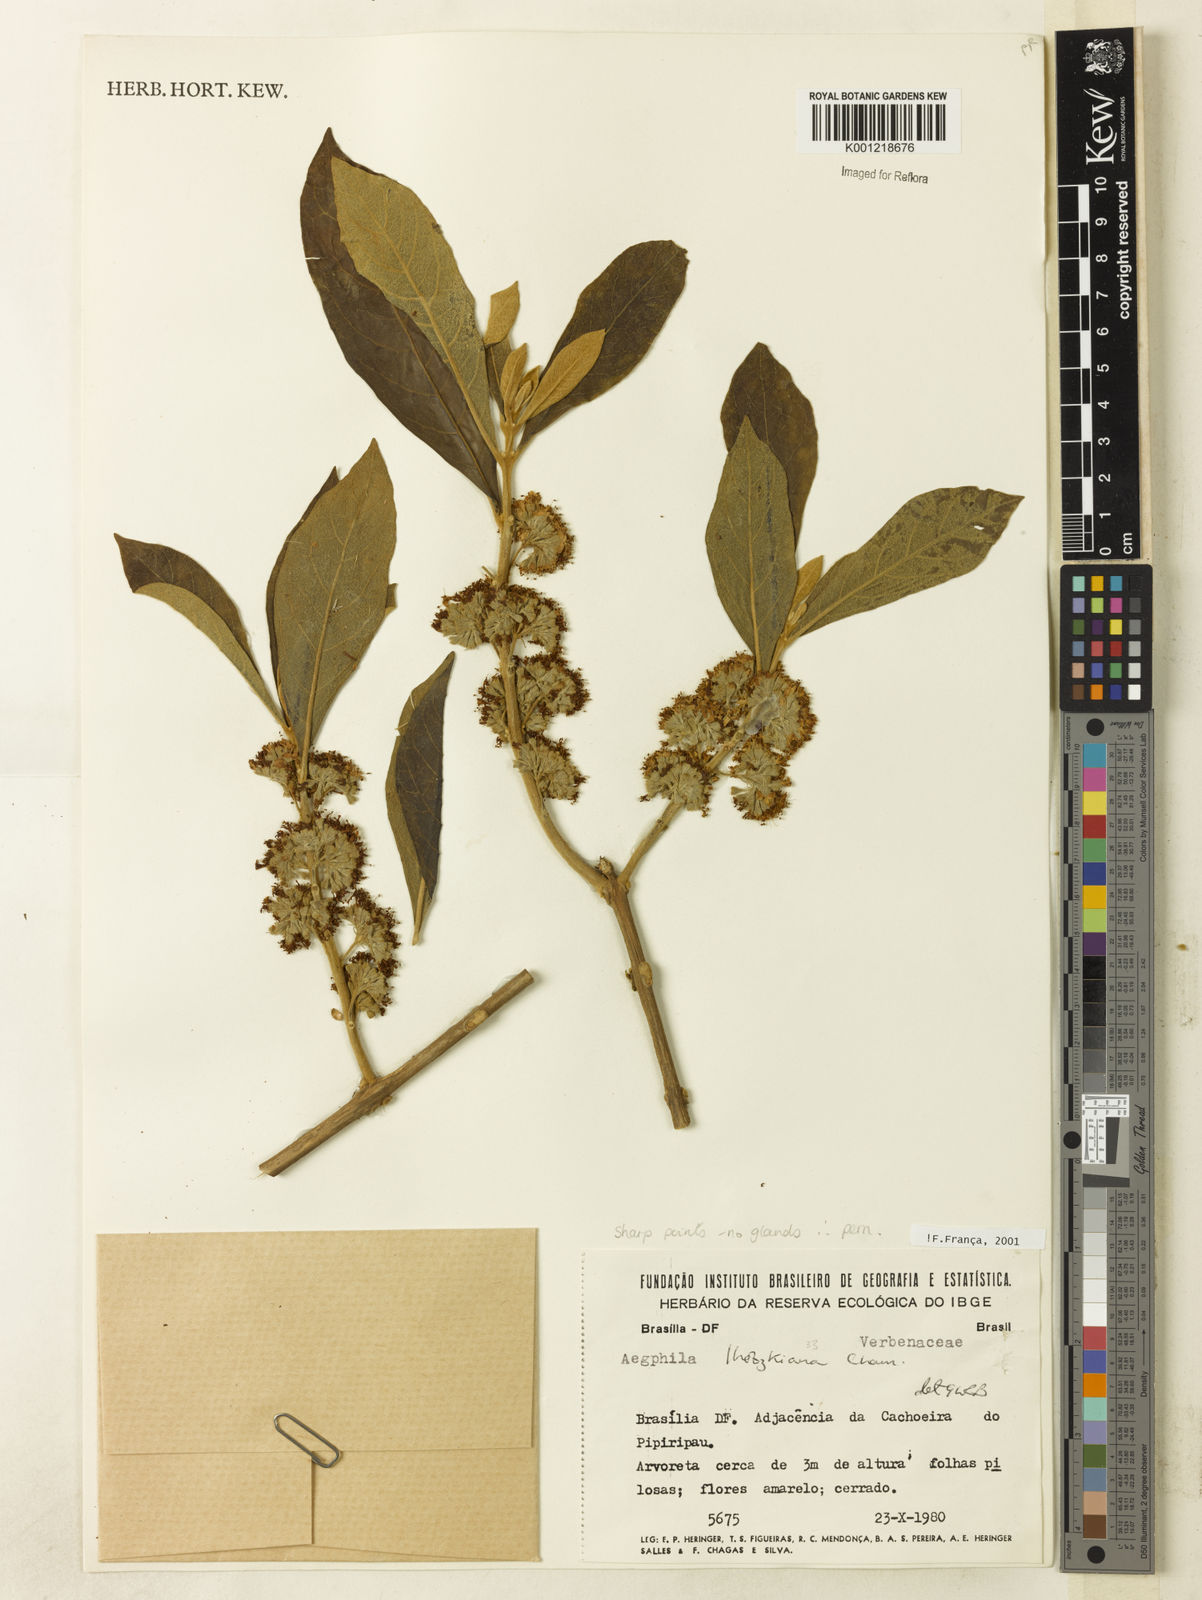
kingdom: Plantae
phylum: Tracheophyta
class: Magnoliopsida
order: Lamiales
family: Lamiaceae
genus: Aegiphila
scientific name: Aegiphila verticillata
